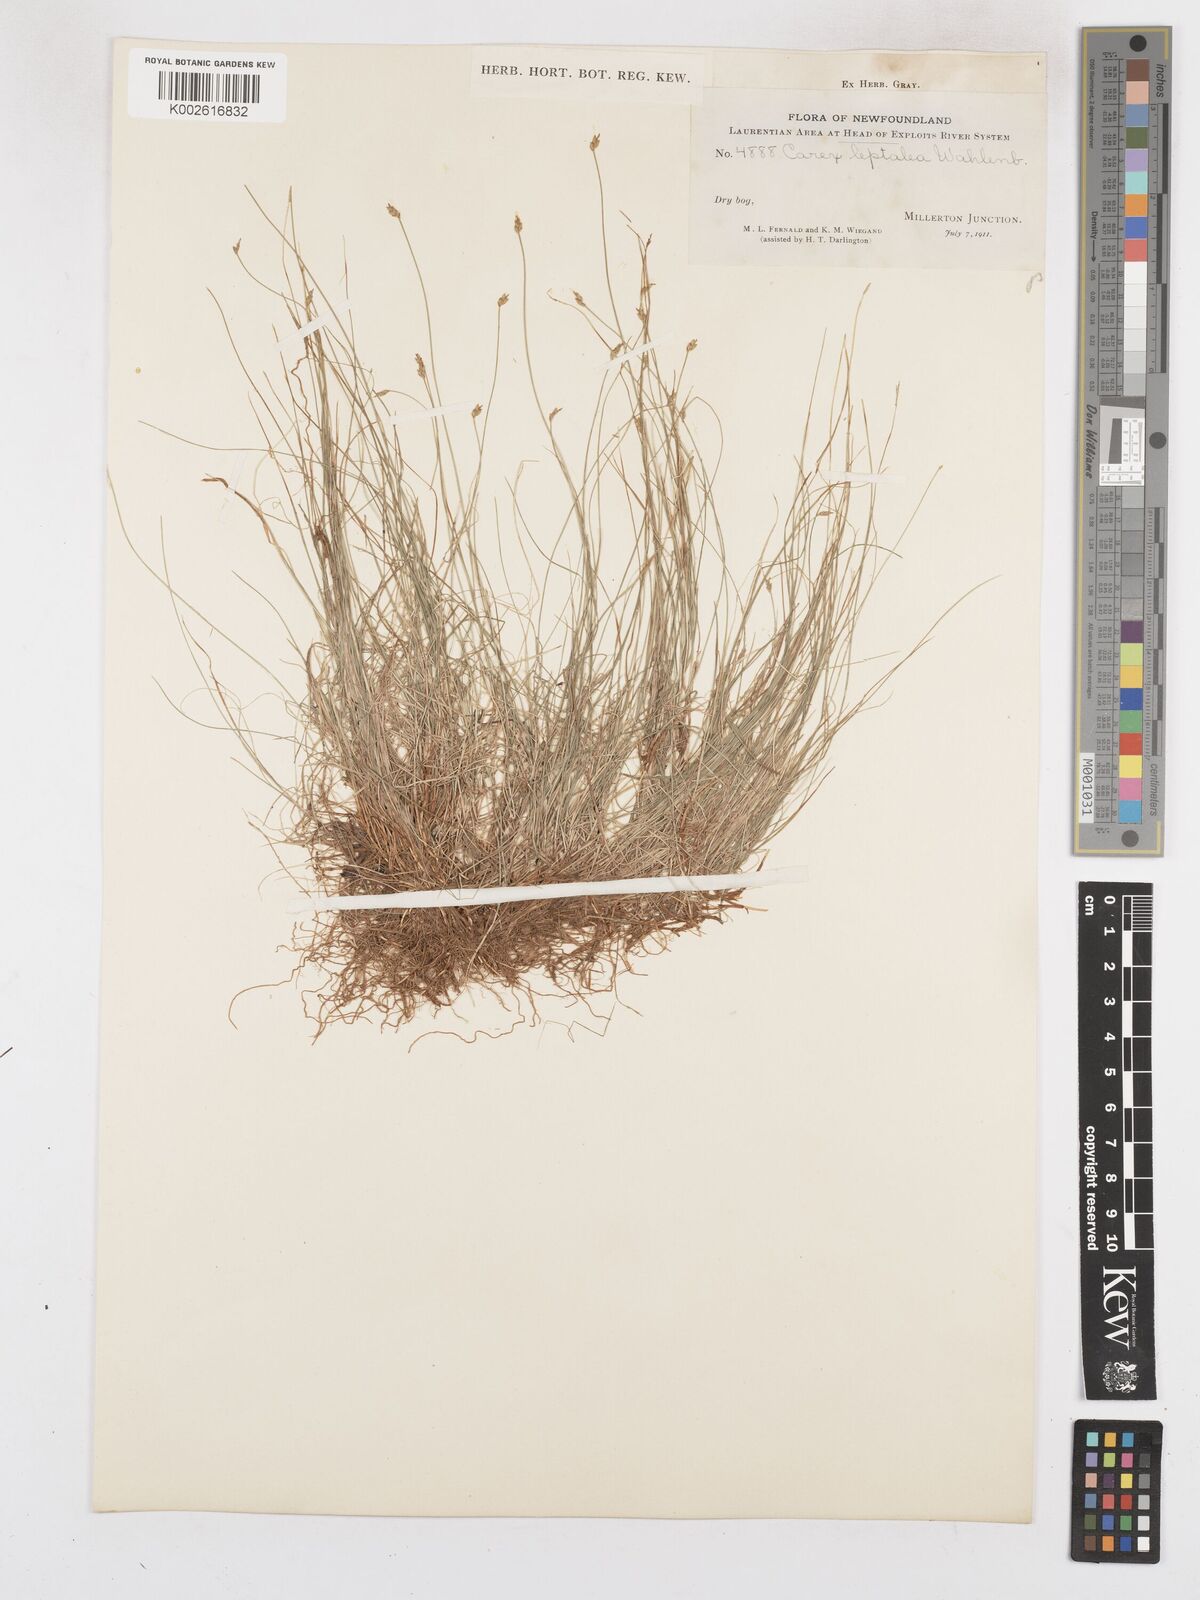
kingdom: Plantae
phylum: Tracheophyta
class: Liliopsida
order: Poales
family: Cyperaceae
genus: Carex
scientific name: Carex leptalea
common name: Bristly-stalked sedge
